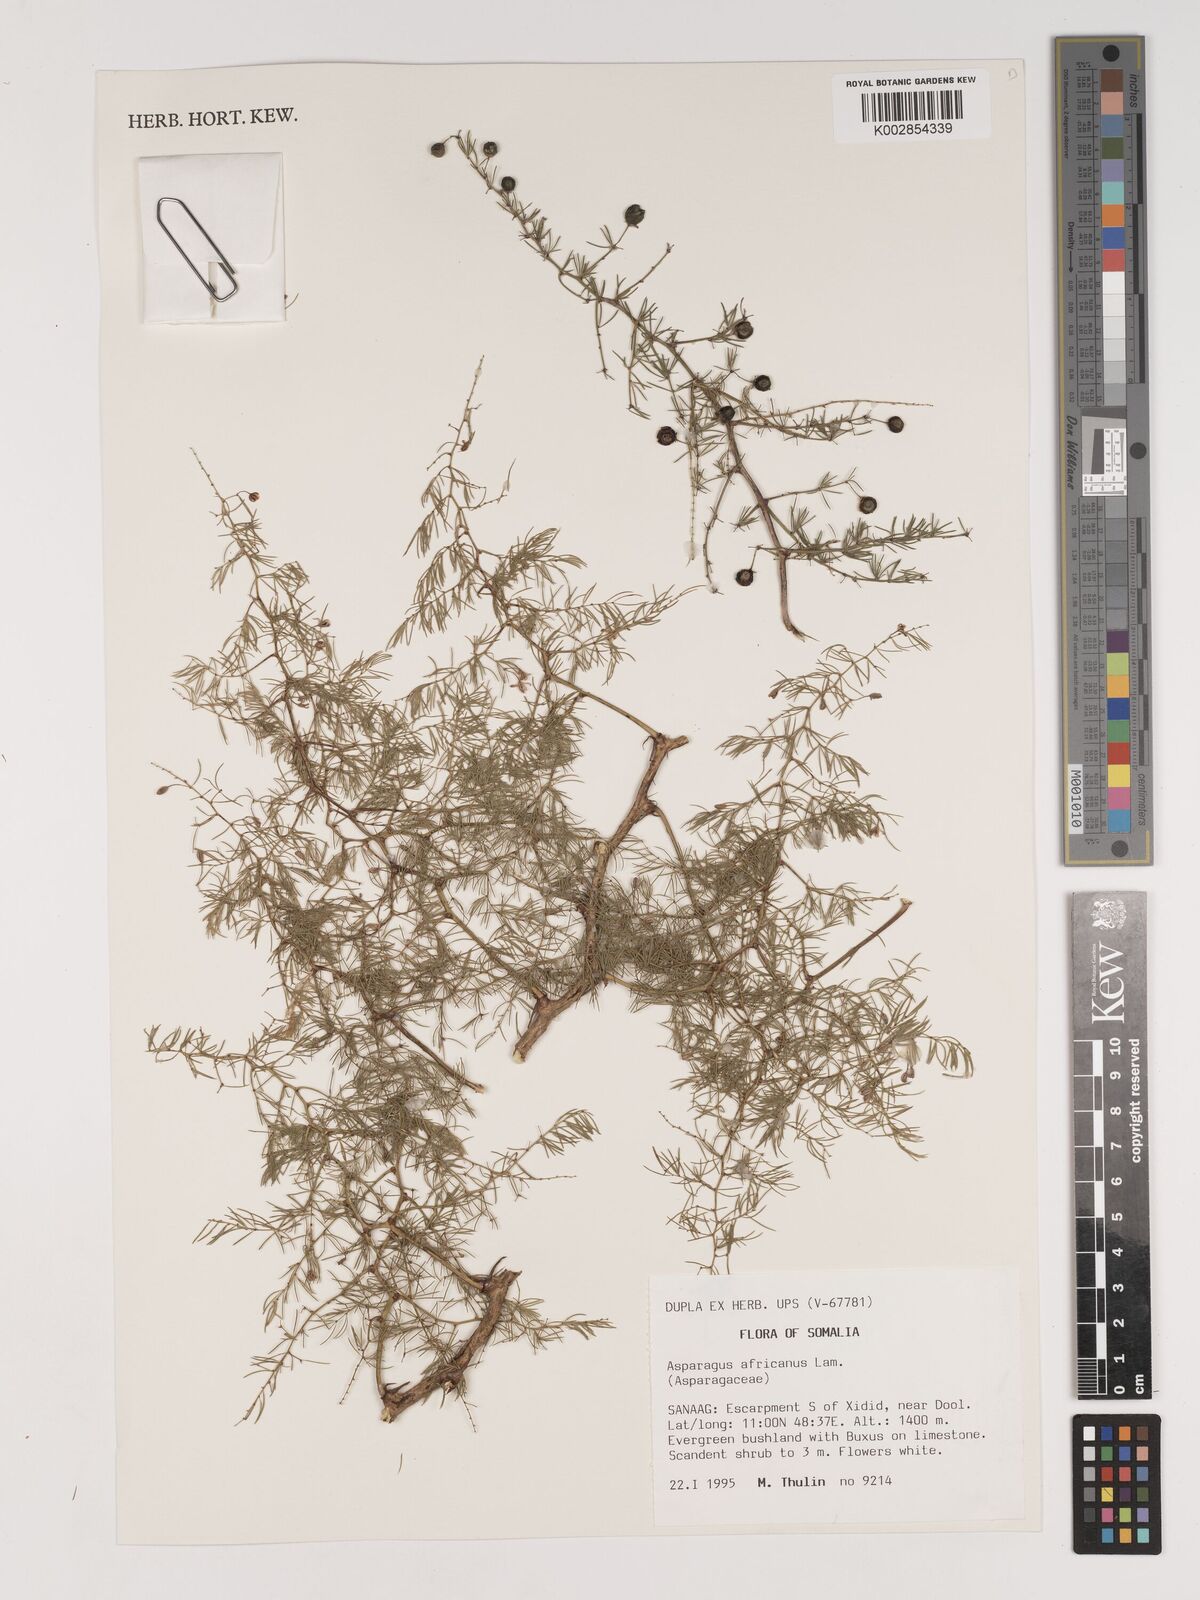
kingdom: Plantae
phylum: Tracheophyta
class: Liliopsida
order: Asparagales
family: Asparagaceae
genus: Asparagus
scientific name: Asparagus africanus
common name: Asparagus-fern
